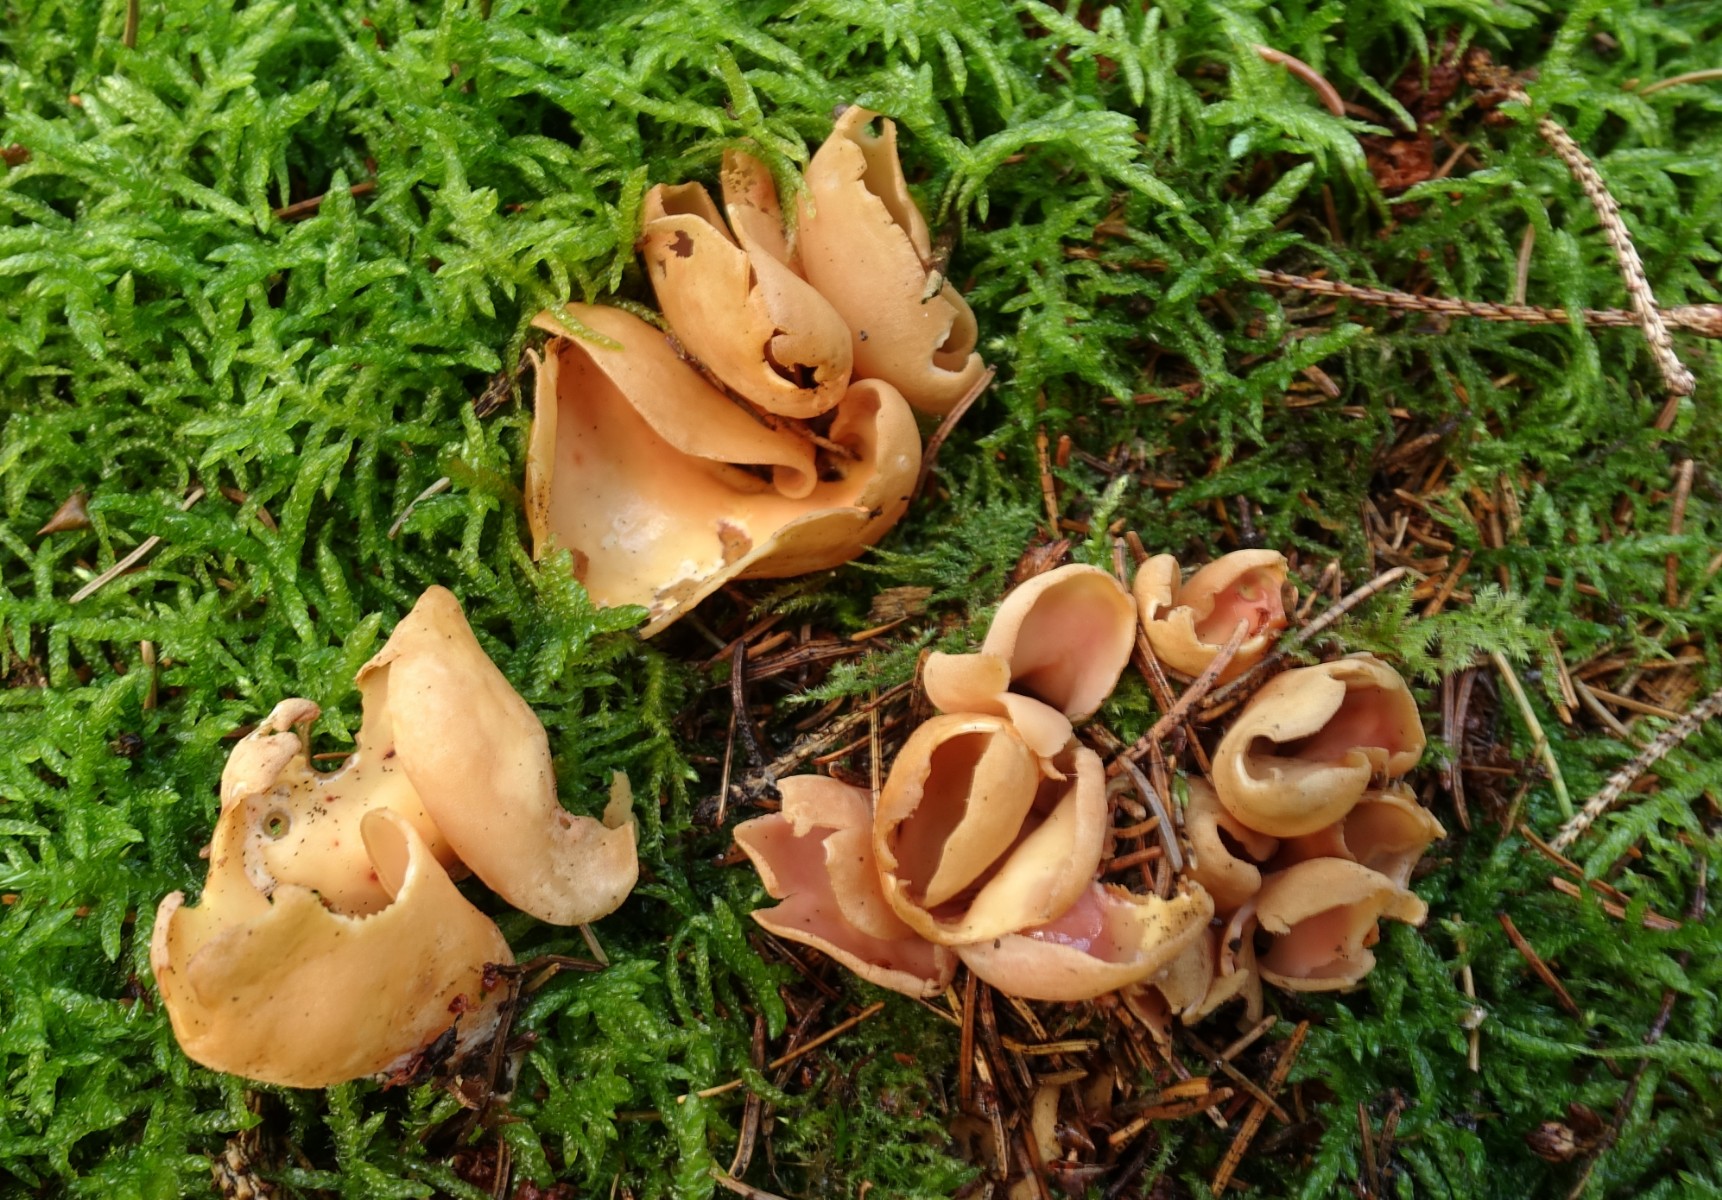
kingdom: Fungi
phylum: Ascomycota
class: Pezizomycetes
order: Pezizales
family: Otideaceae
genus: Otidea
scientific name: Otidea onotica
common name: æsel-ørebæger
